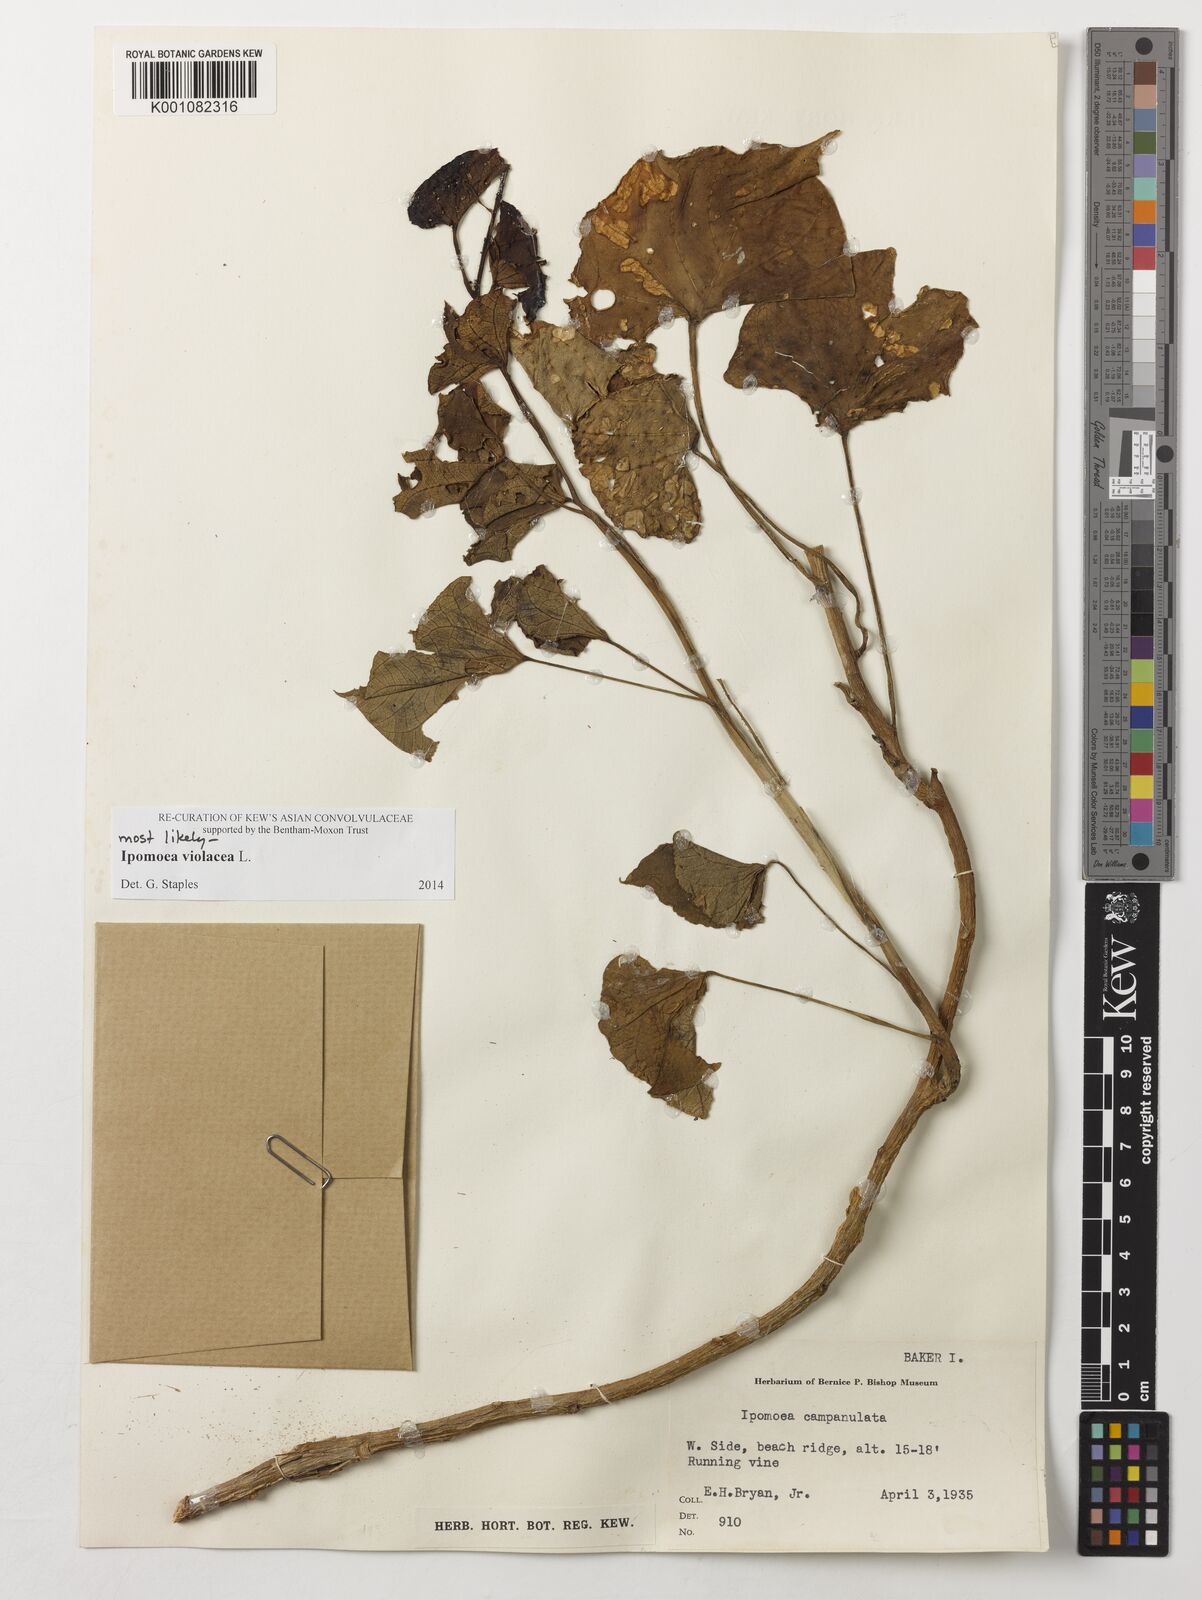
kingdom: Plantae
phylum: Tracheophyta
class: Magnoliopsida
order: Solanales
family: Convolvulaceae
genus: Ipomoea
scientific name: Ipomoea violacea
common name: Beach moonflower
